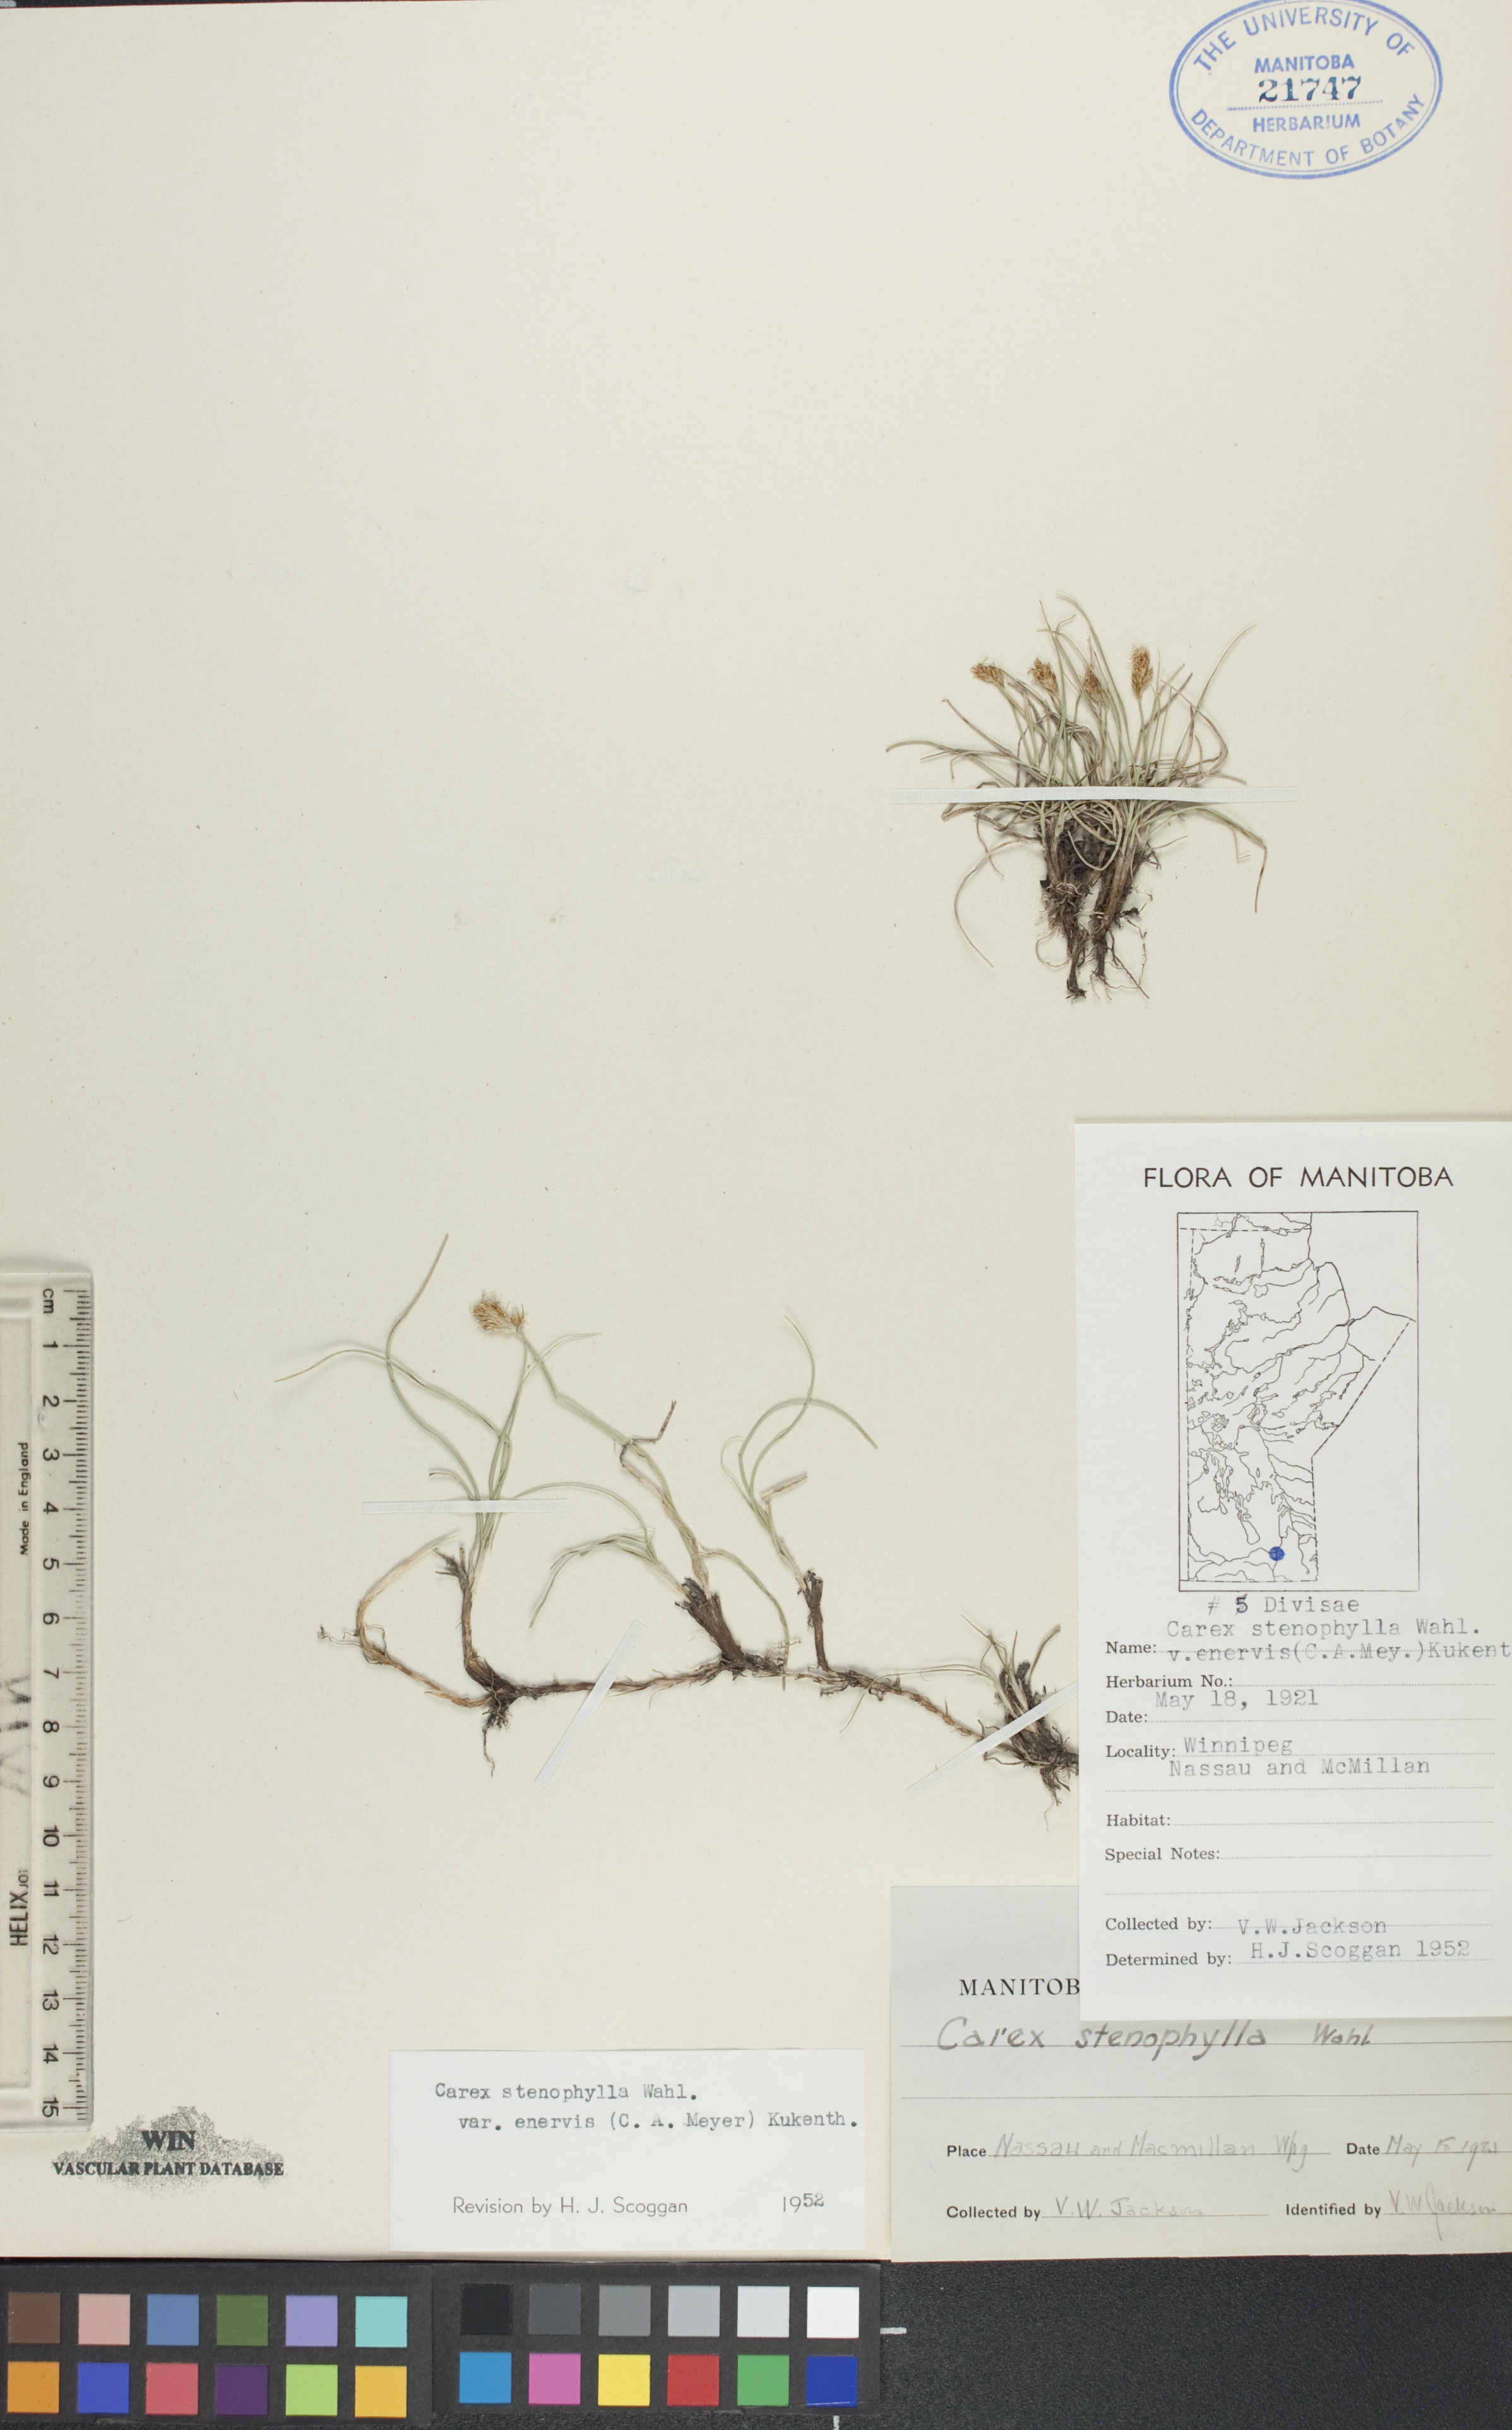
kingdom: Plantae
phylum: Tracheophyta
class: Liliopsida
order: Poales
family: Cyperaceae
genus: Carex
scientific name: Carex enervis
